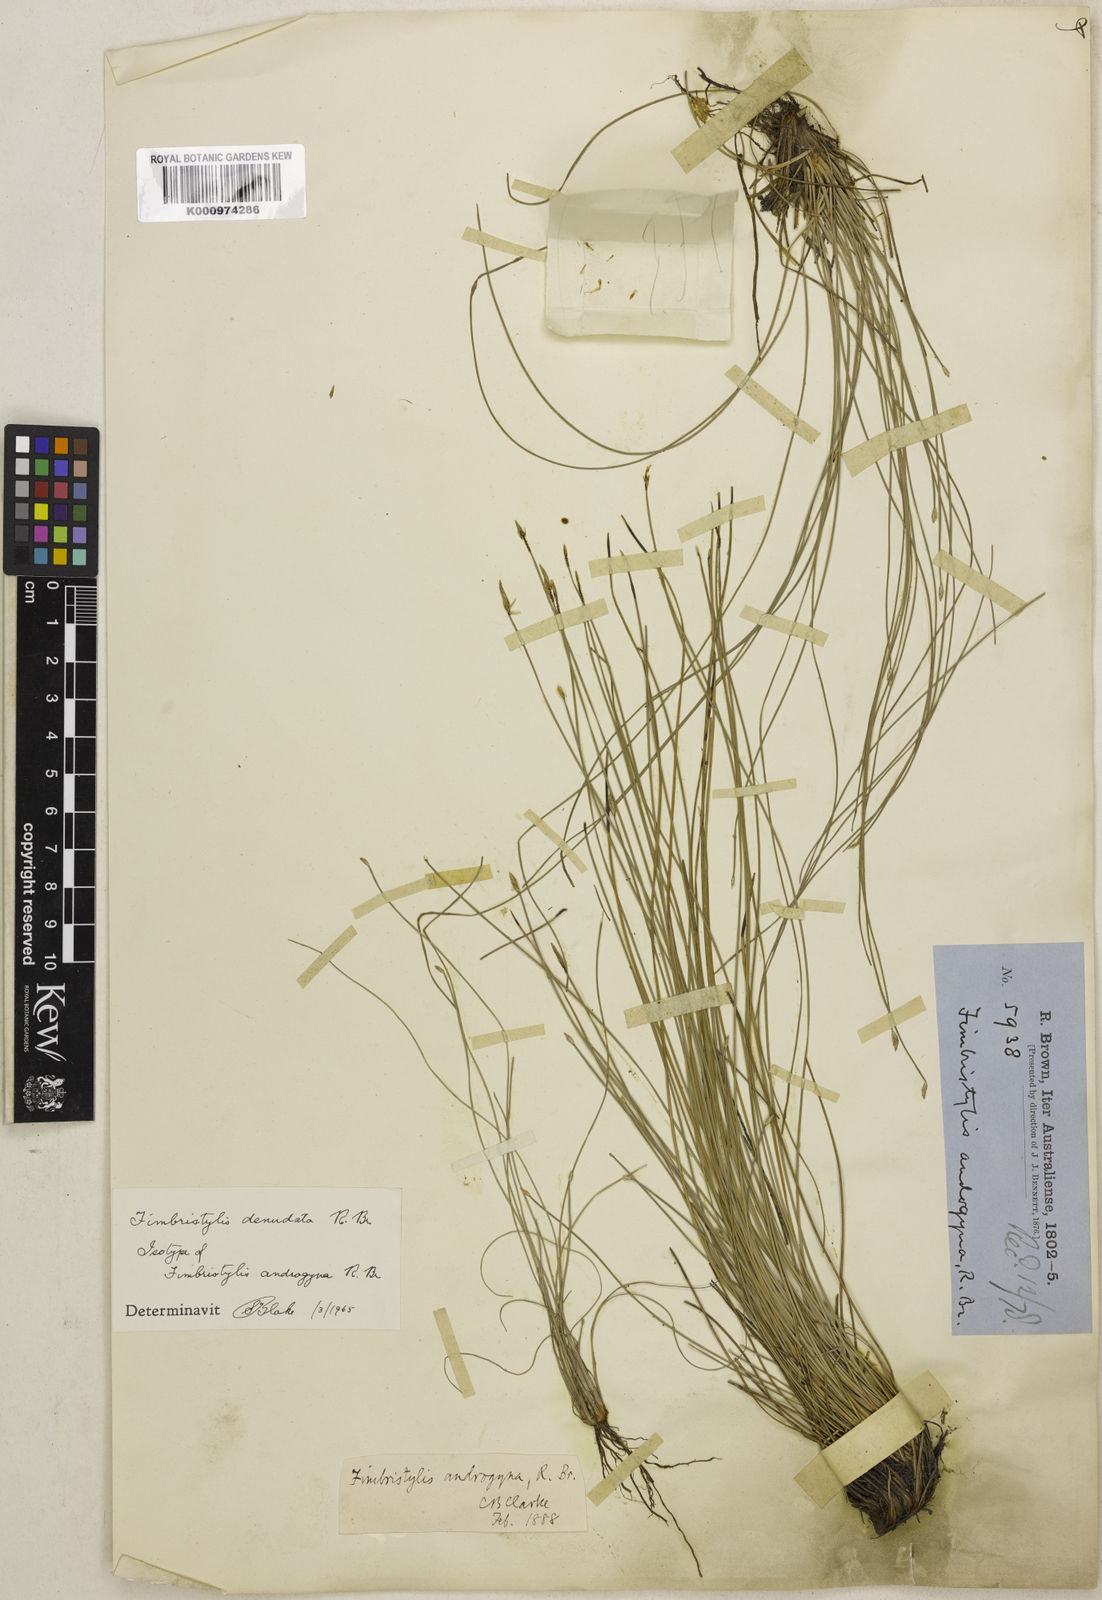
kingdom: Plantae
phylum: Tracheophyta
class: Liliopsida
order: Poales
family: Cyperaceae
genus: Fimbristylis
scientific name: Fimbristylis denudata
